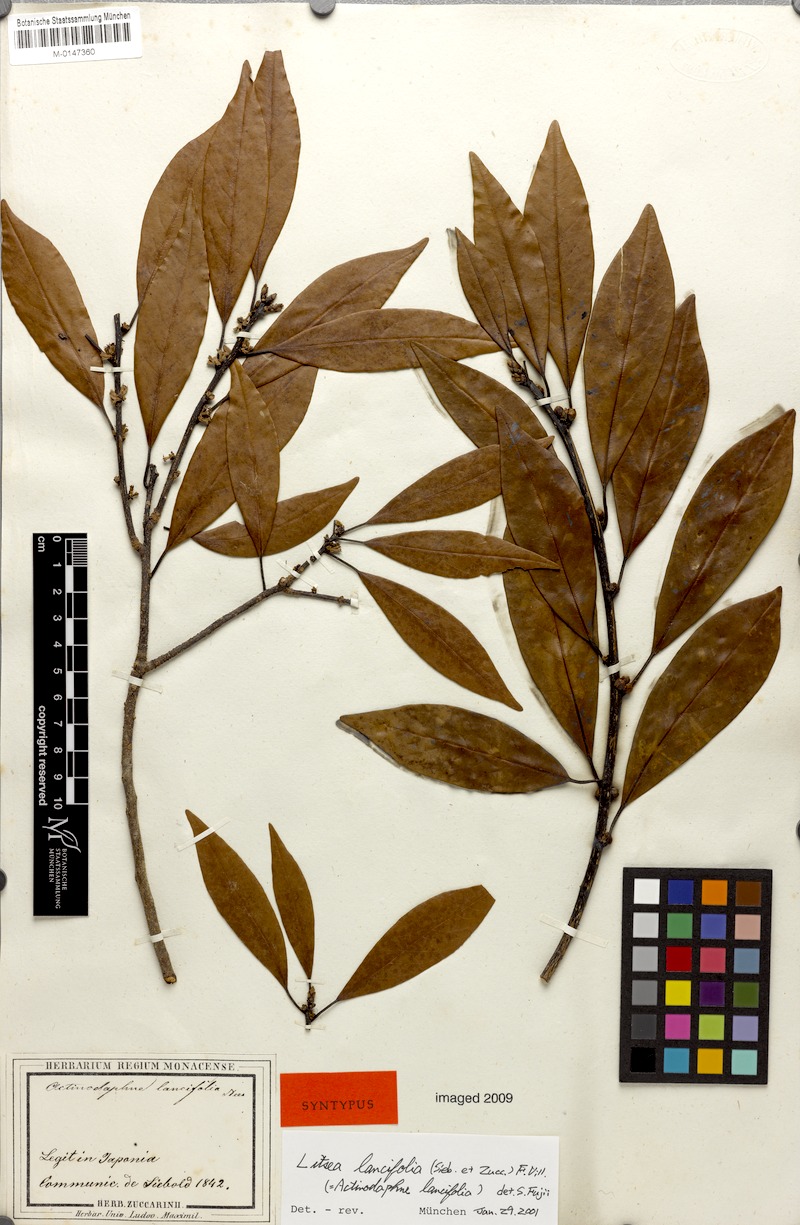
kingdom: Plantae
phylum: Tracheophyta
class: Magnoliopsida
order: Laurales
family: Lauraceae
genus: Litsea
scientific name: Litsea lancifolia
